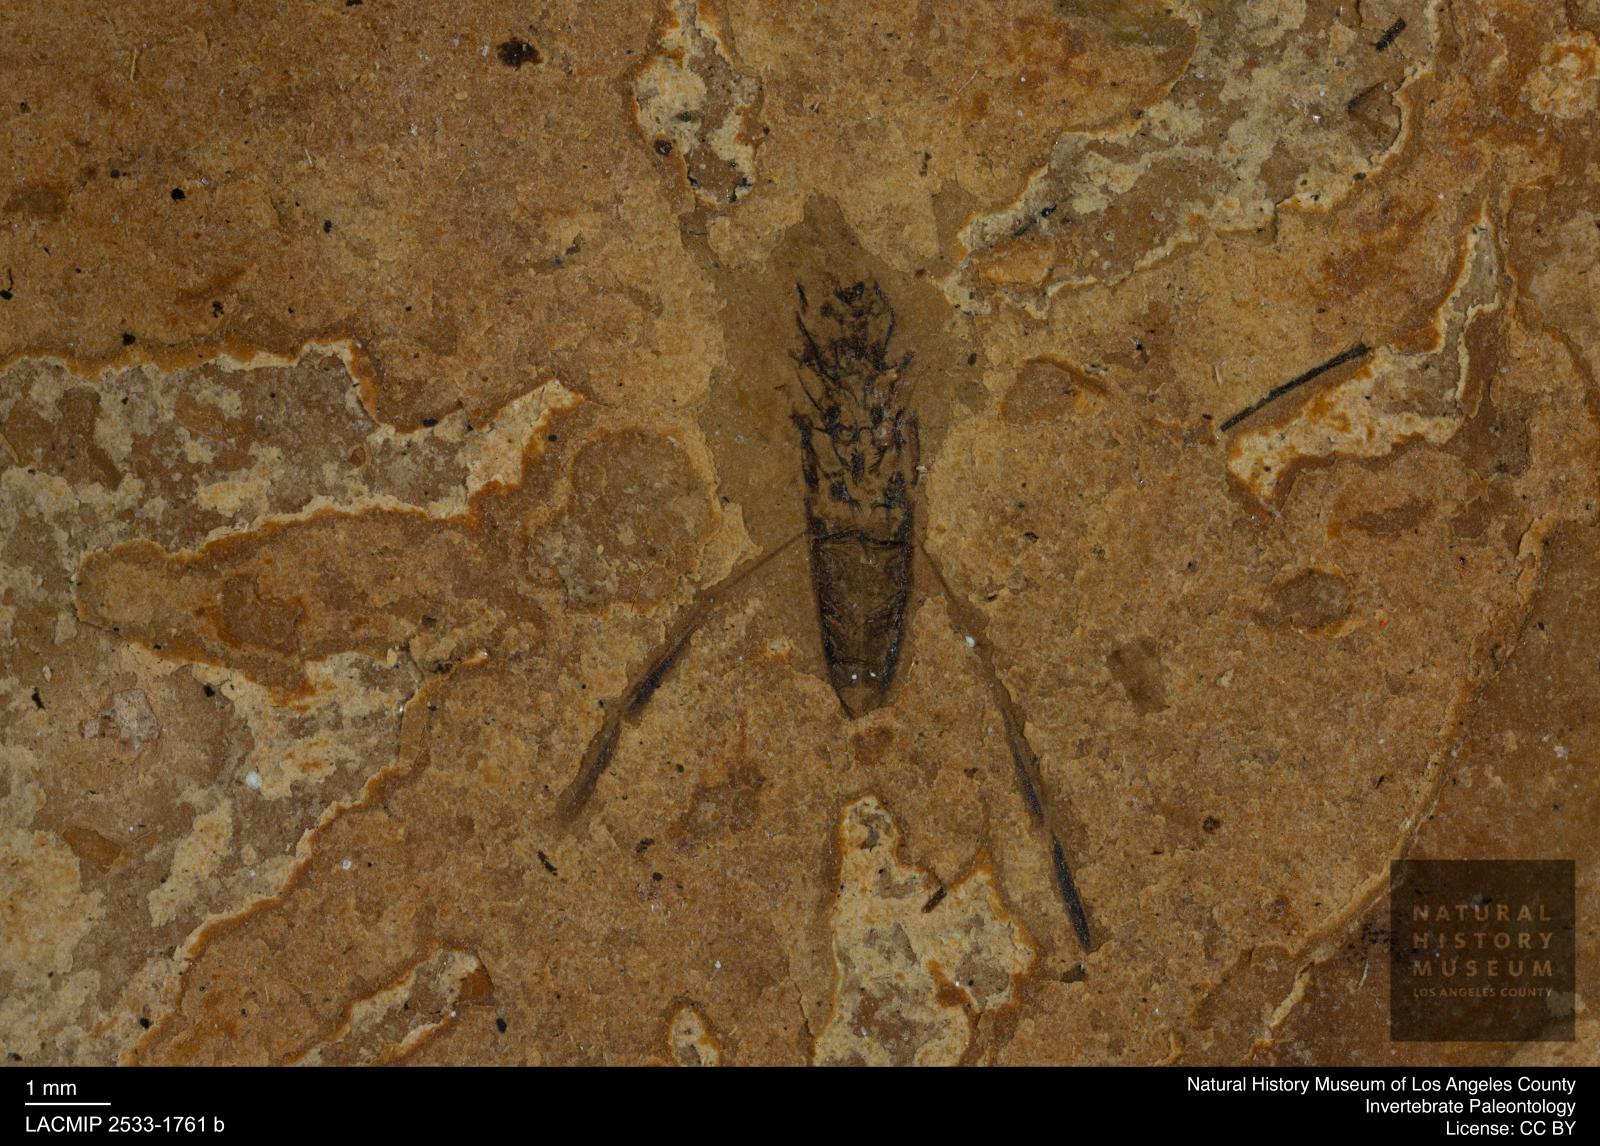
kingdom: Animalia
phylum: Arthropoda
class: Insecta
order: Hemiptera
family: Notonectidae
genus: Notonecta
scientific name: Notonecta
